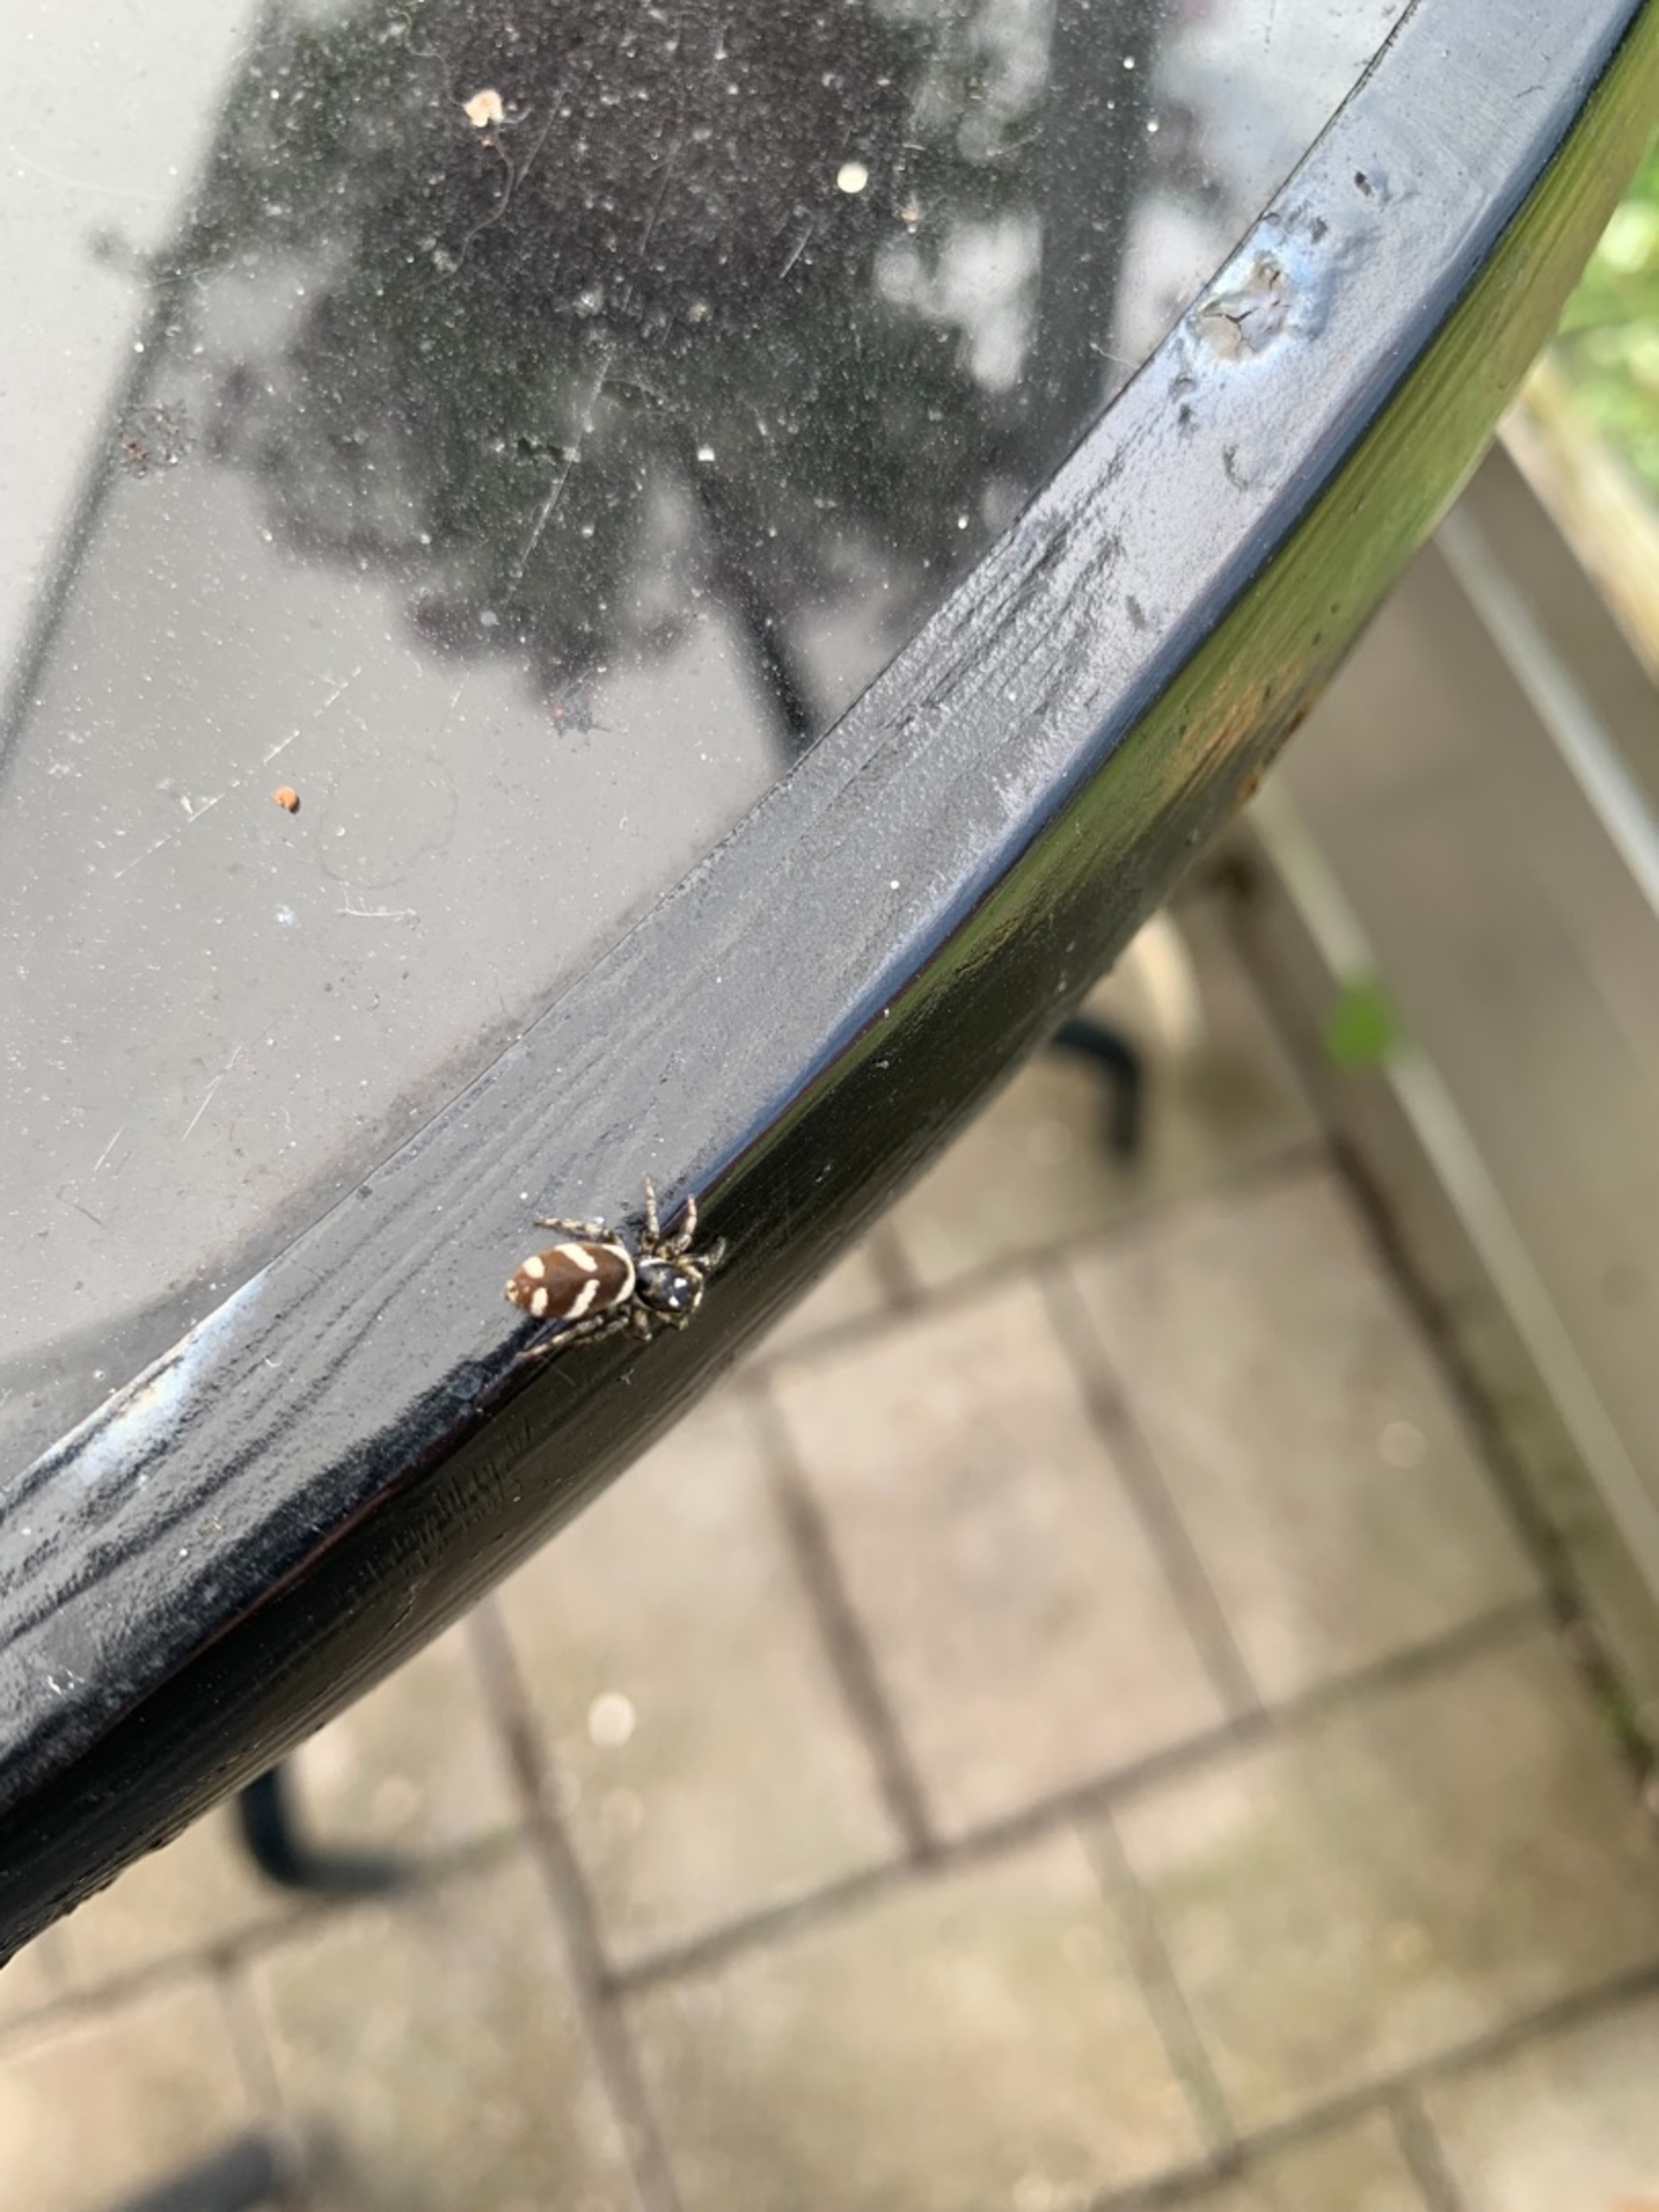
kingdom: Animalia
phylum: Arthropoda
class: Arachnida
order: Araneae
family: Salticidae
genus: Salticus
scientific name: Salticus scenicus
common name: Almindelig zebraedderkop
